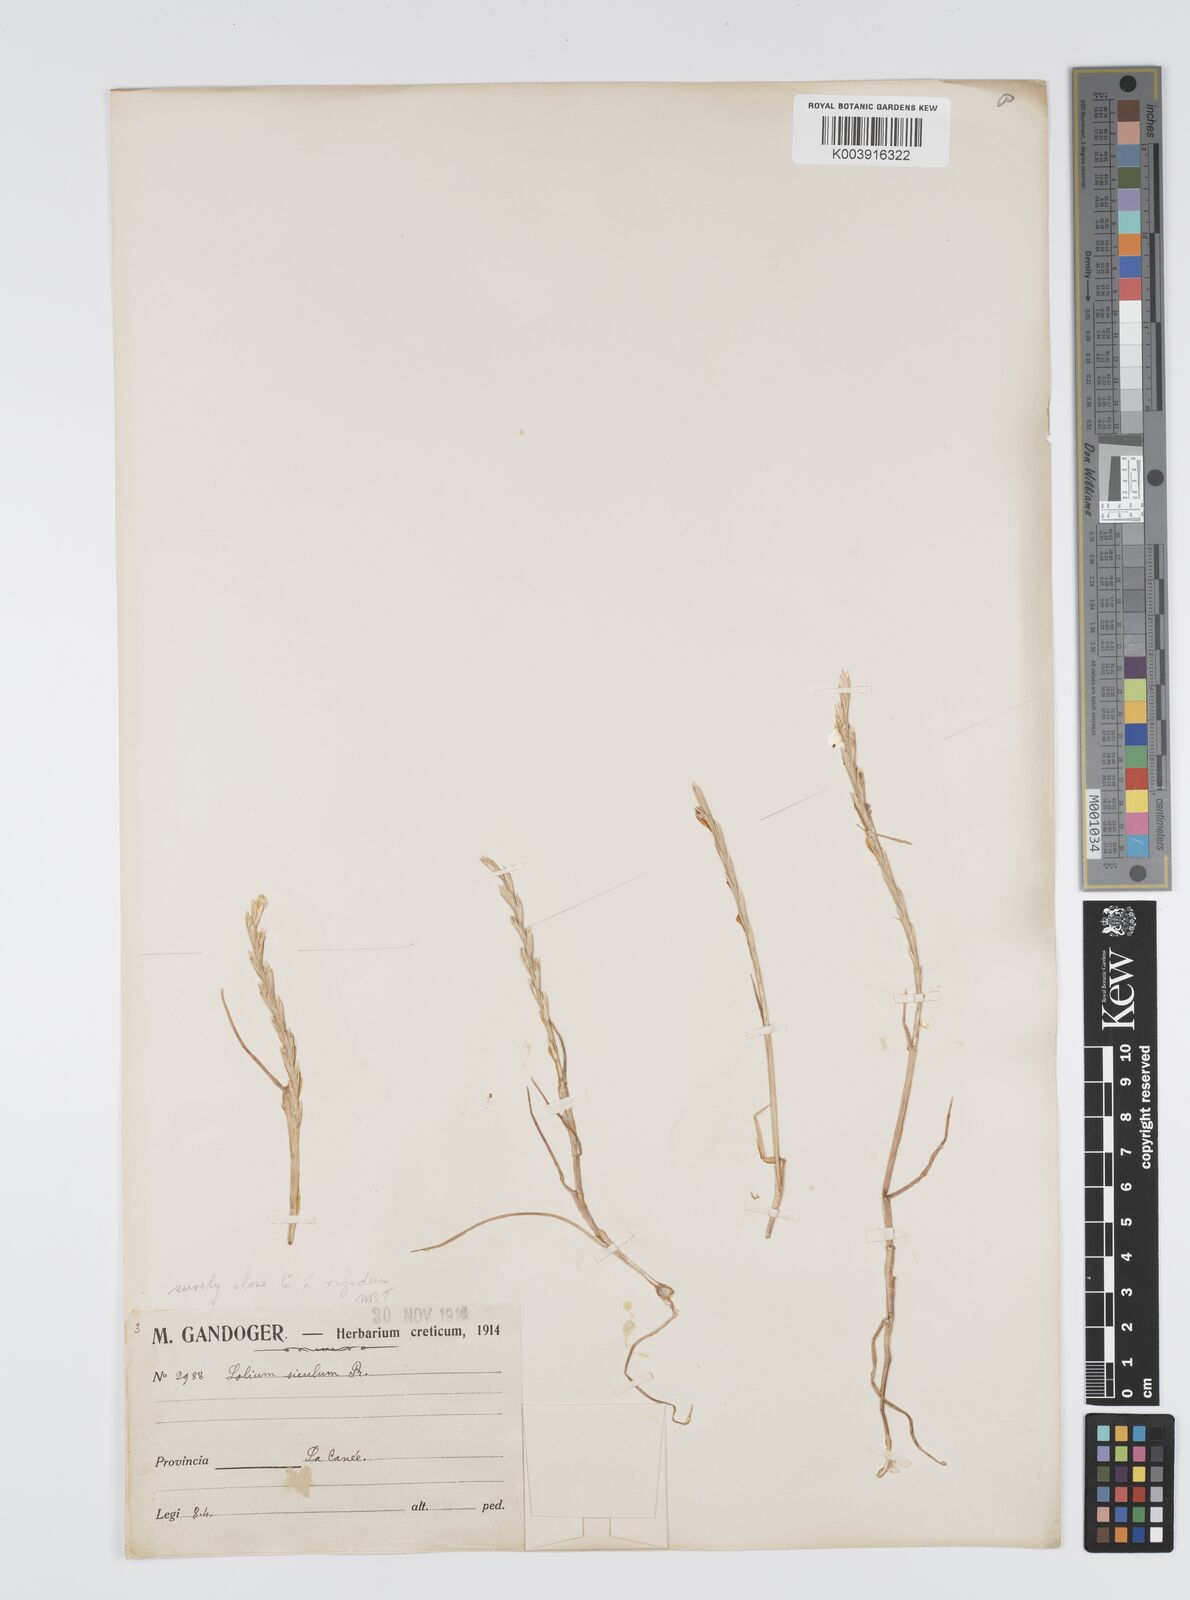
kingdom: Plantae
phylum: Tracheophyta
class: Liliopsida
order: Poales
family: Poaceae
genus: Lolium
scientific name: Lolium rigidum
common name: Wimmera ryegrass
